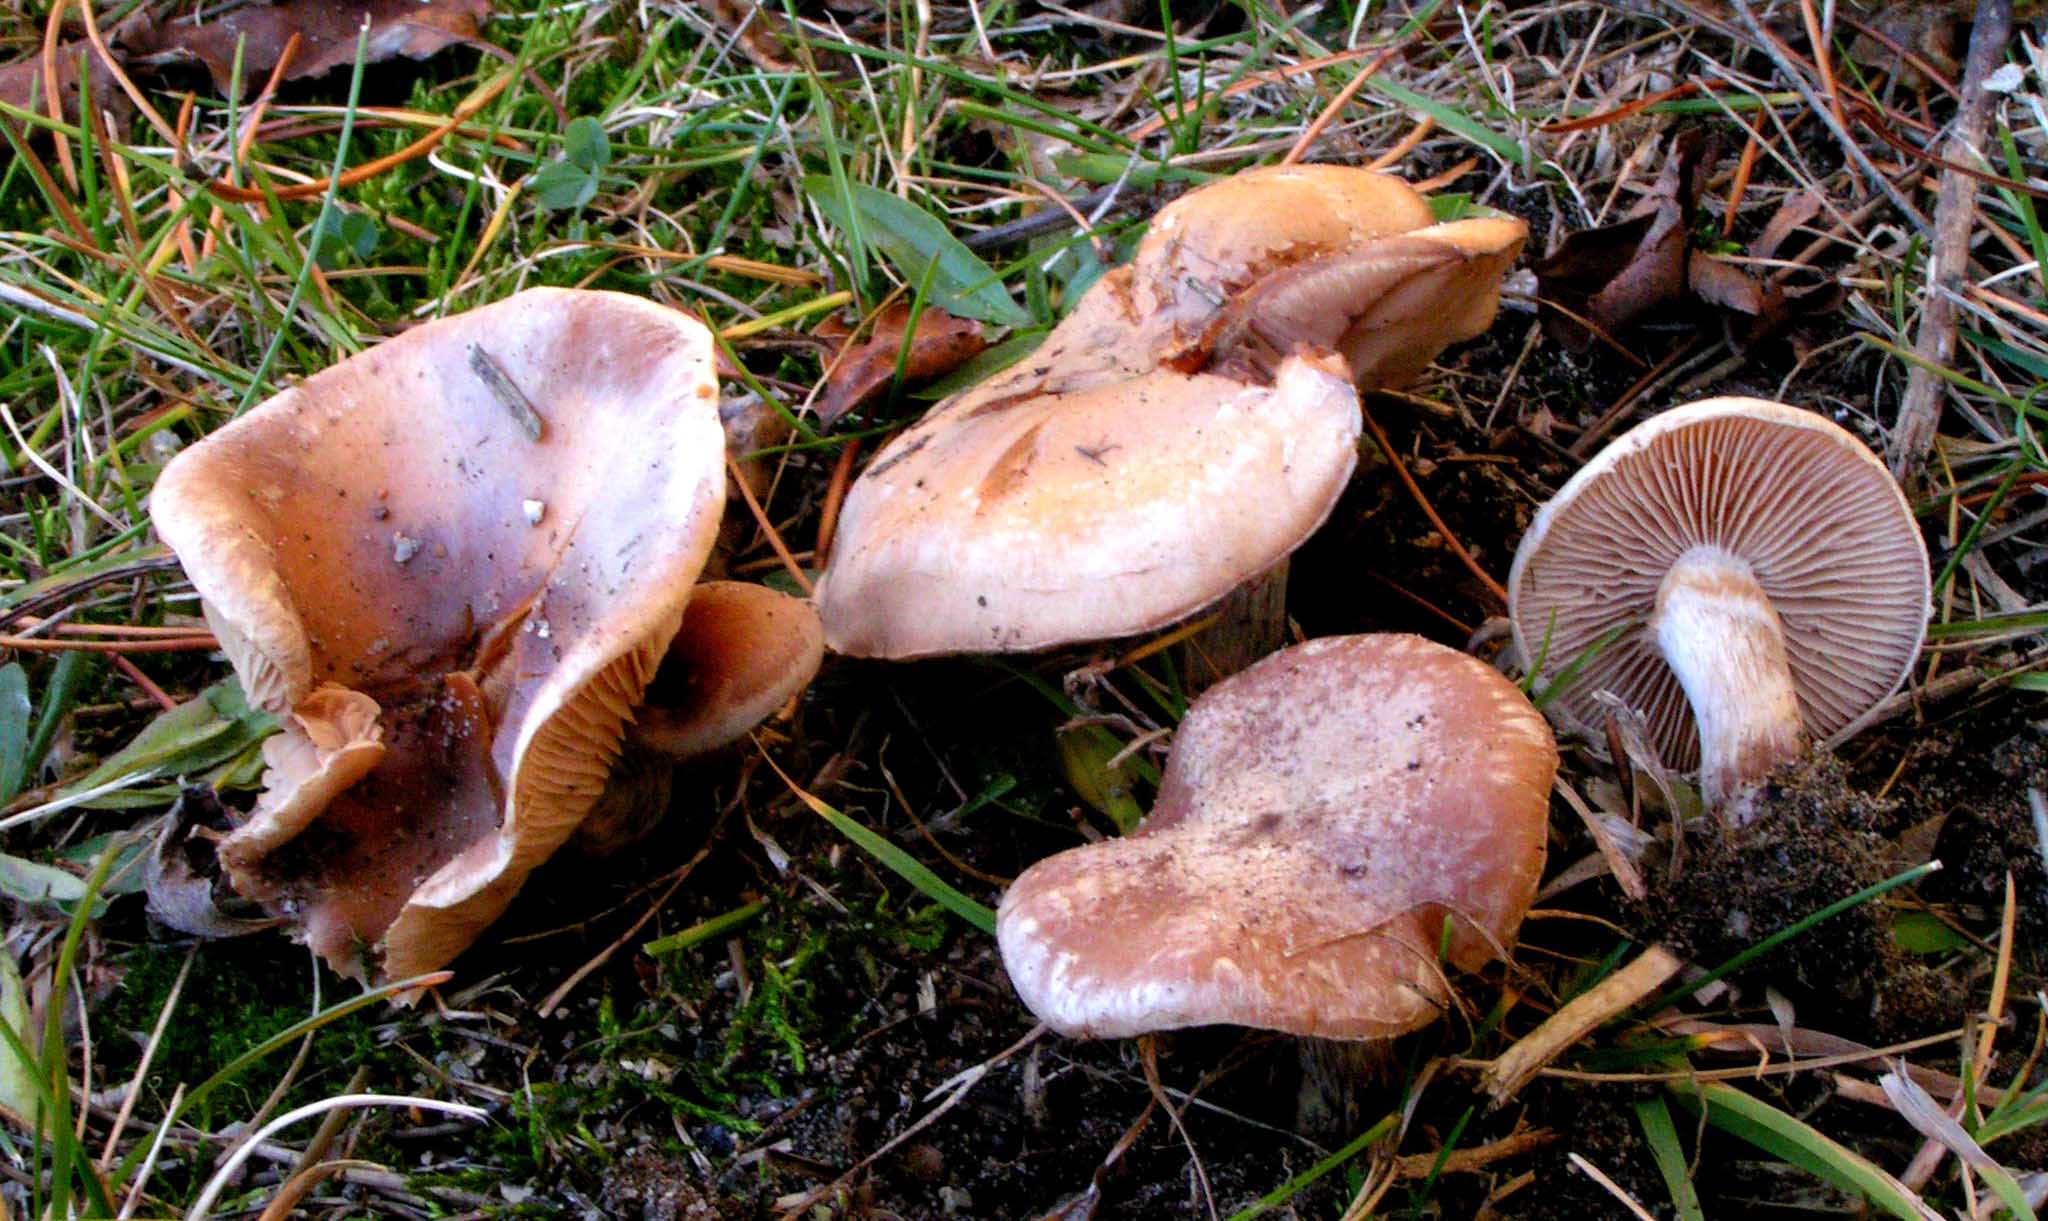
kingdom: Fungi
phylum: Basidiomycota
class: Agaricomycetes
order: Agaricales
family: Hymenogastraceae
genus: Hebeloma
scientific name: Hebeloma
